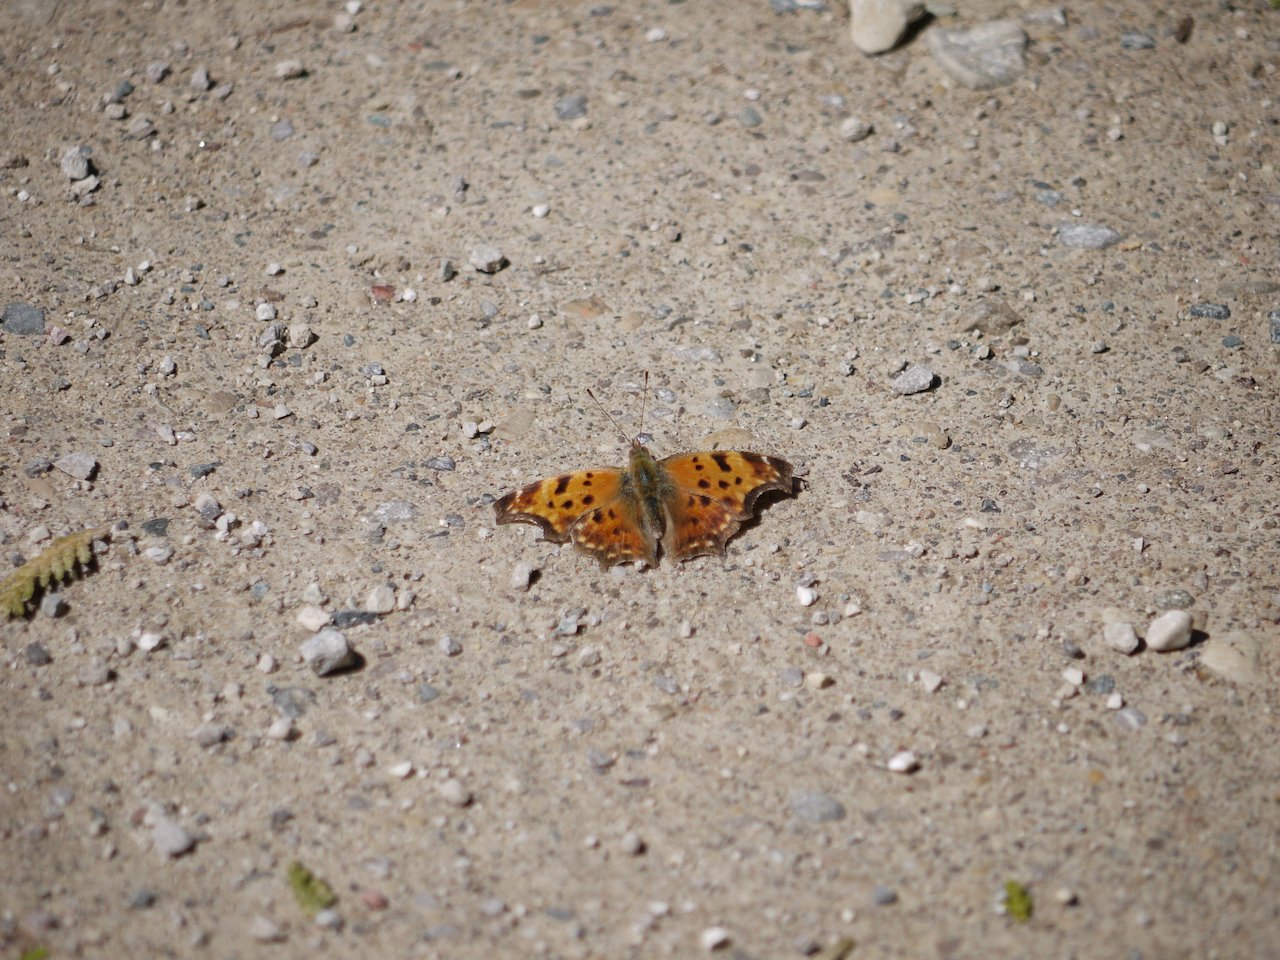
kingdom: Animalia
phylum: Arthropoda
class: Insecta
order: Lepidoptera
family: Nymphalidae
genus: Polygonia
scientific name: Polygonia comma
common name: Eastern Comma
